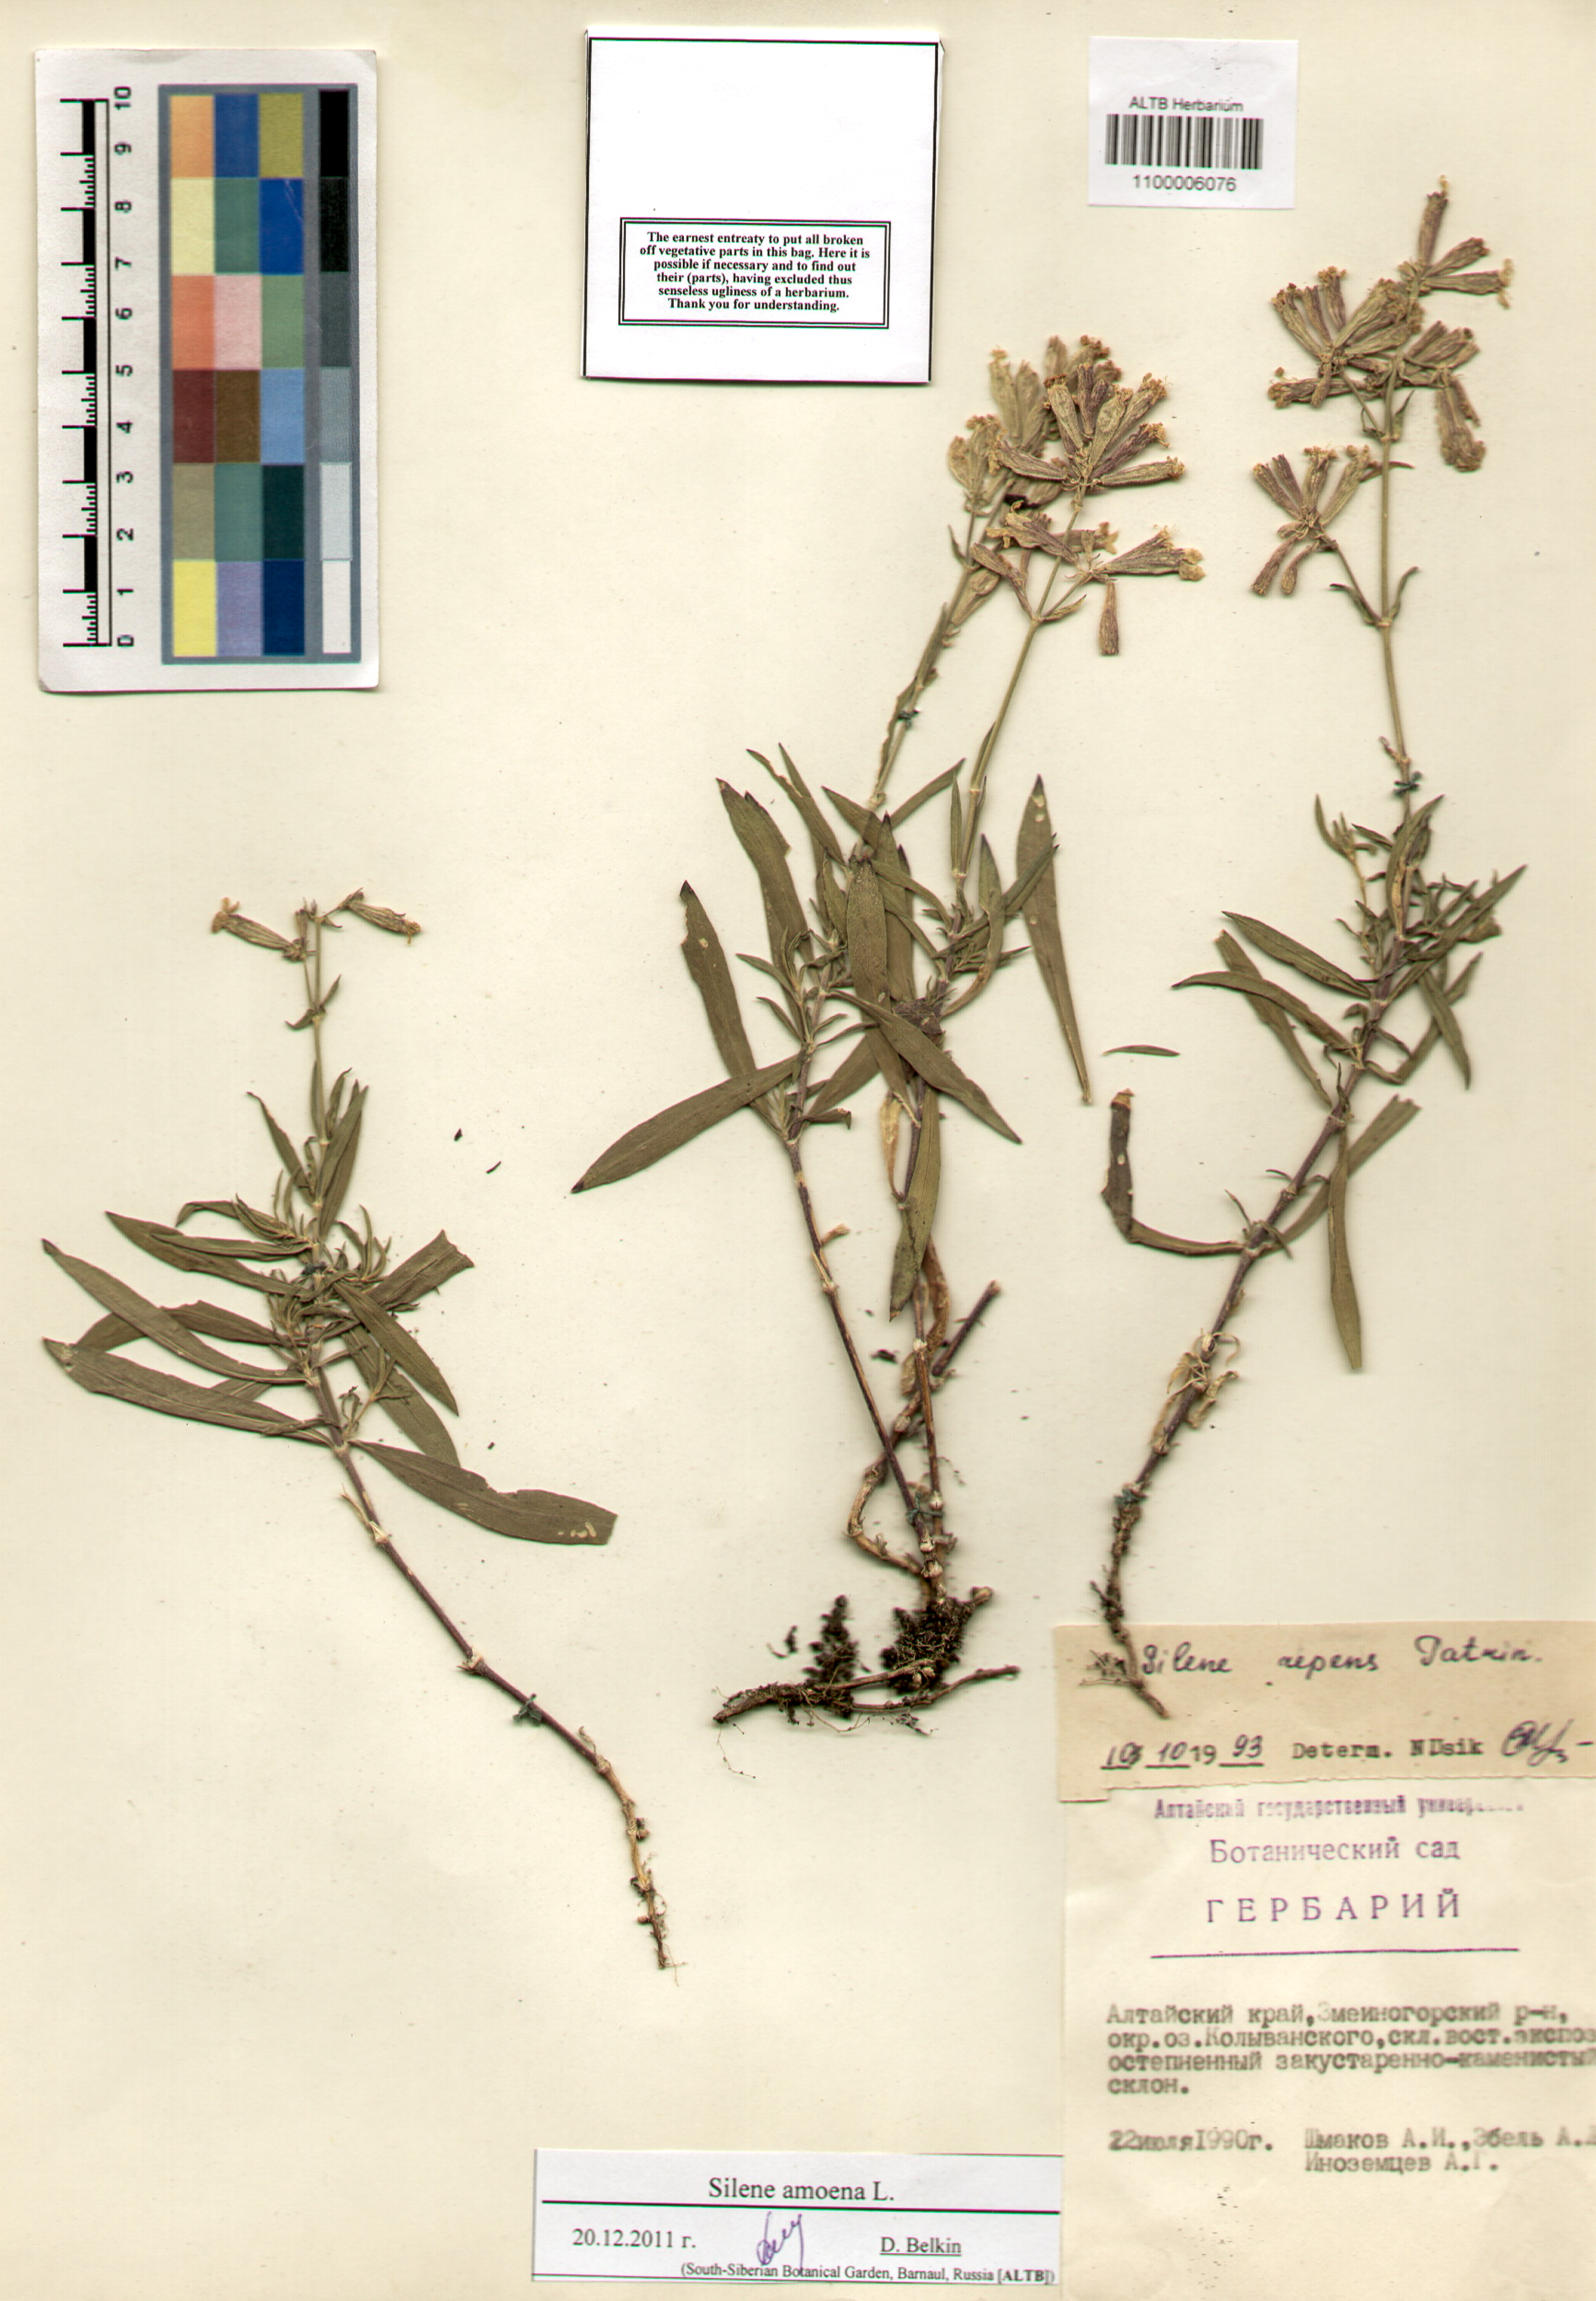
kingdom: Plantae
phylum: Tracheophyta
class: Magnoliopsida
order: Caryophyllales
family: Caryophyllaceae
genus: Silene
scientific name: Silene amoena
